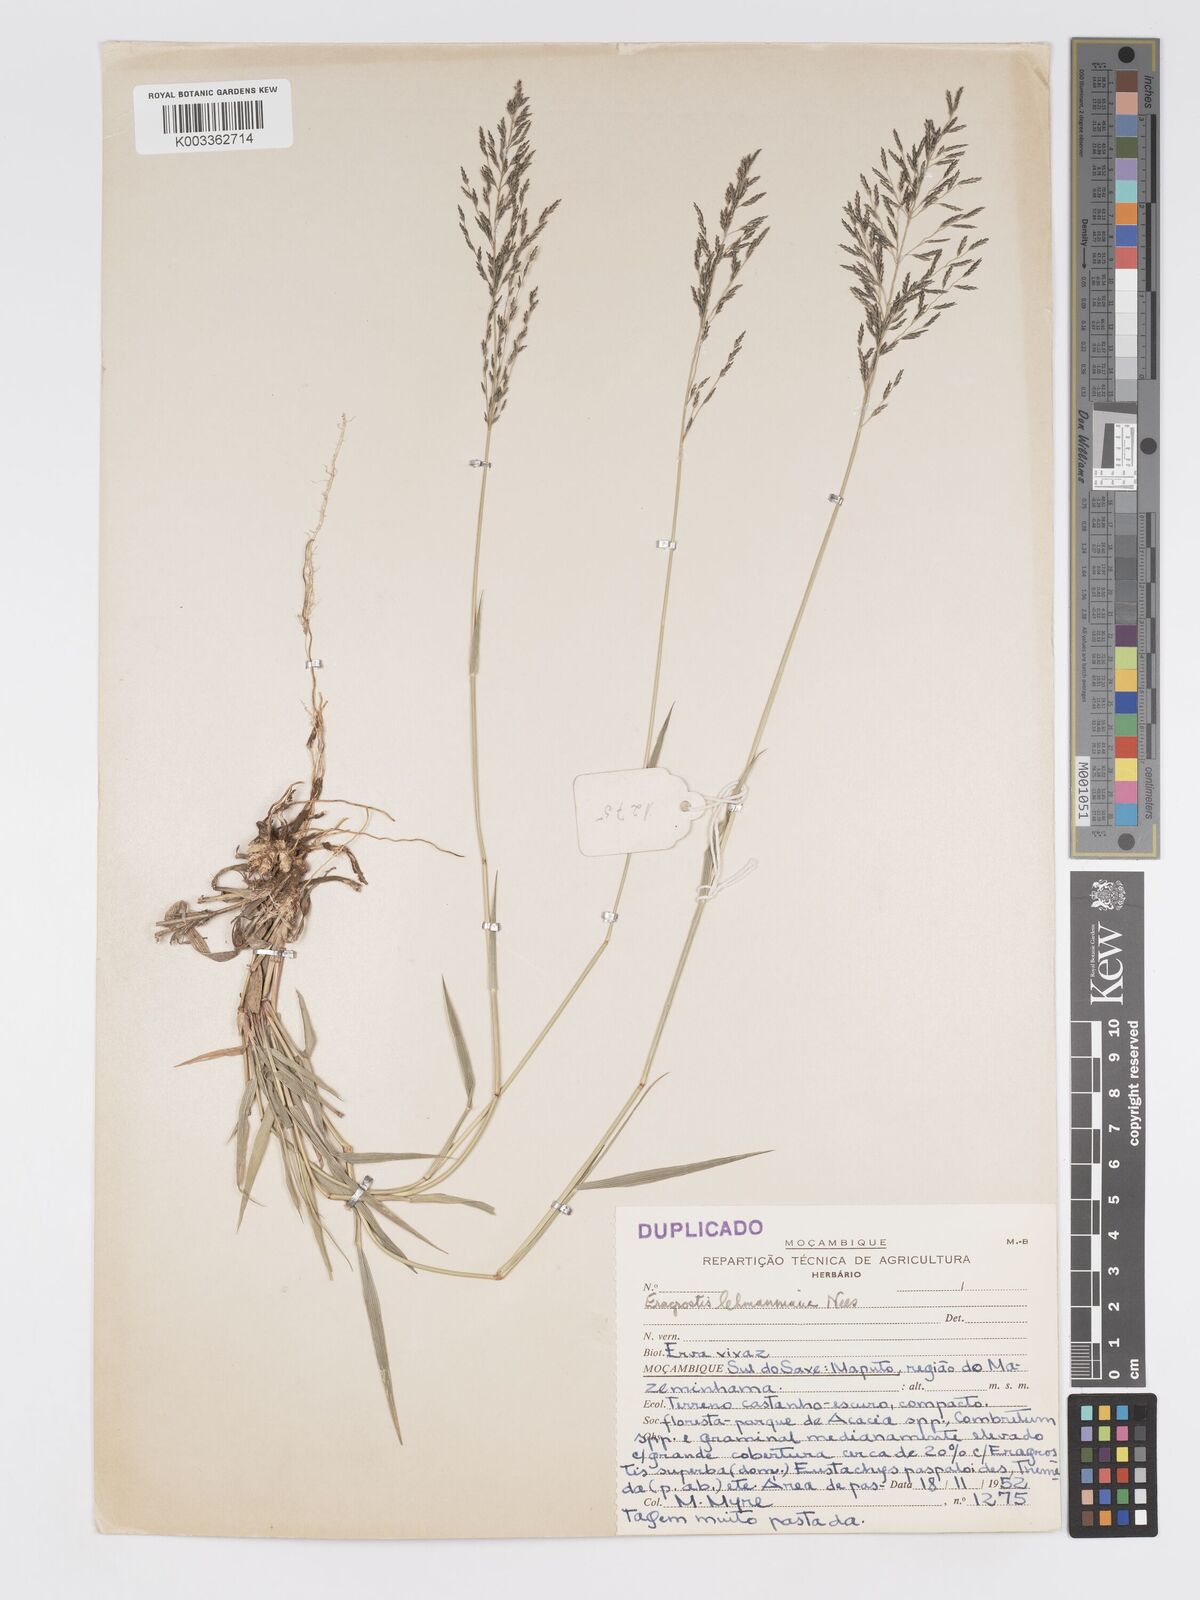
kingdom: Plantae
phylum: Tracheophyta
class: Liliopsida
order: Poales
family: Poaceae
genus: Eragrostis
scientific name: Eragrostis cylindriflora
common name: Cylinderflower lovegrass
